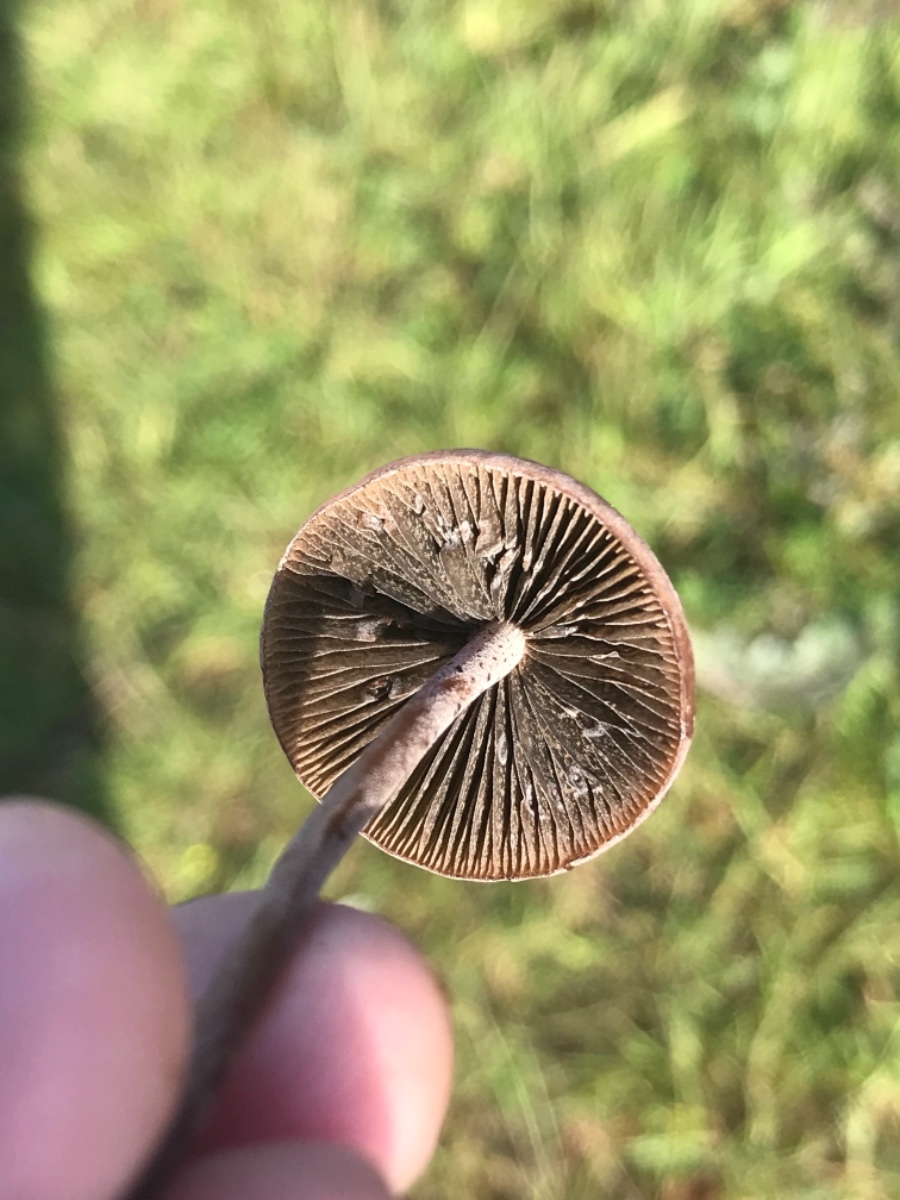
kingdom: Fungi
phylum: Basidiomycota
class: Agaricomycetes
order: Agaricales
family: Bolbitiaceae
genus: Panaeolina
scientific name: Panaeolina foenisecii
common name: høslætsvamp
